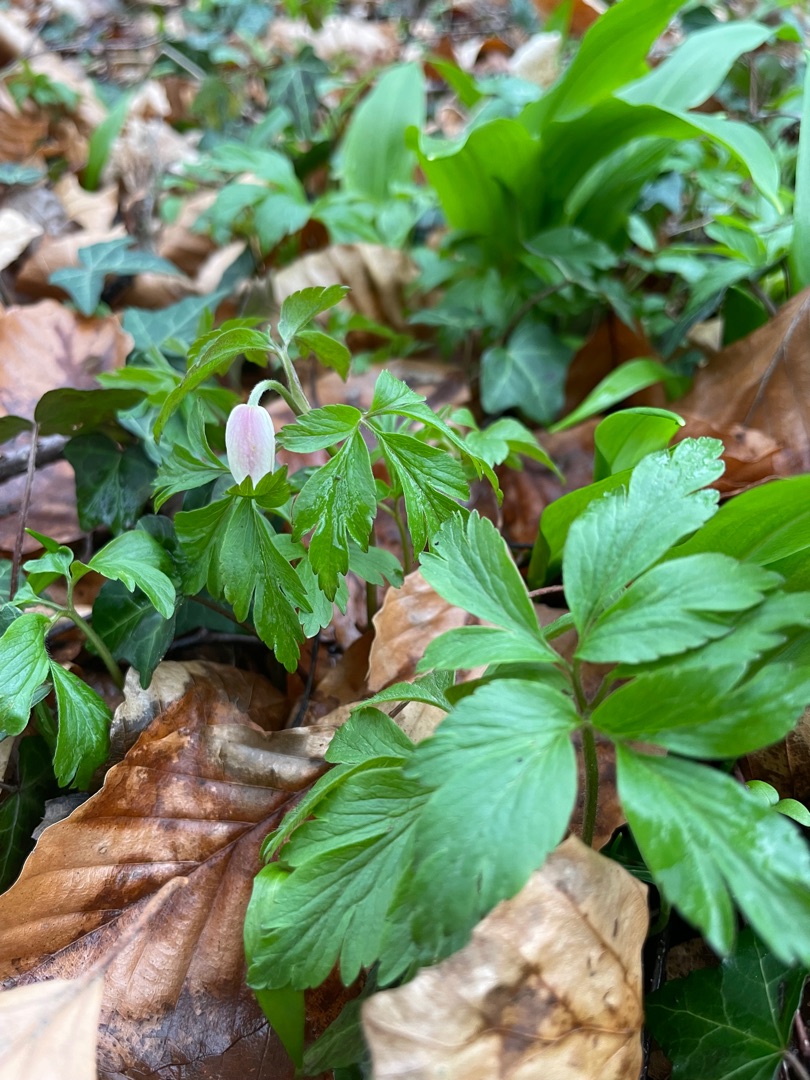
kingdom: Plantae
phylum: Tracheophyta
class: Magnoliopsida
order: Ranunculales
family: Ranunculaceae
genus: Anemone
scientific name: Anemone nemorosa
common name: Hvid anemone
